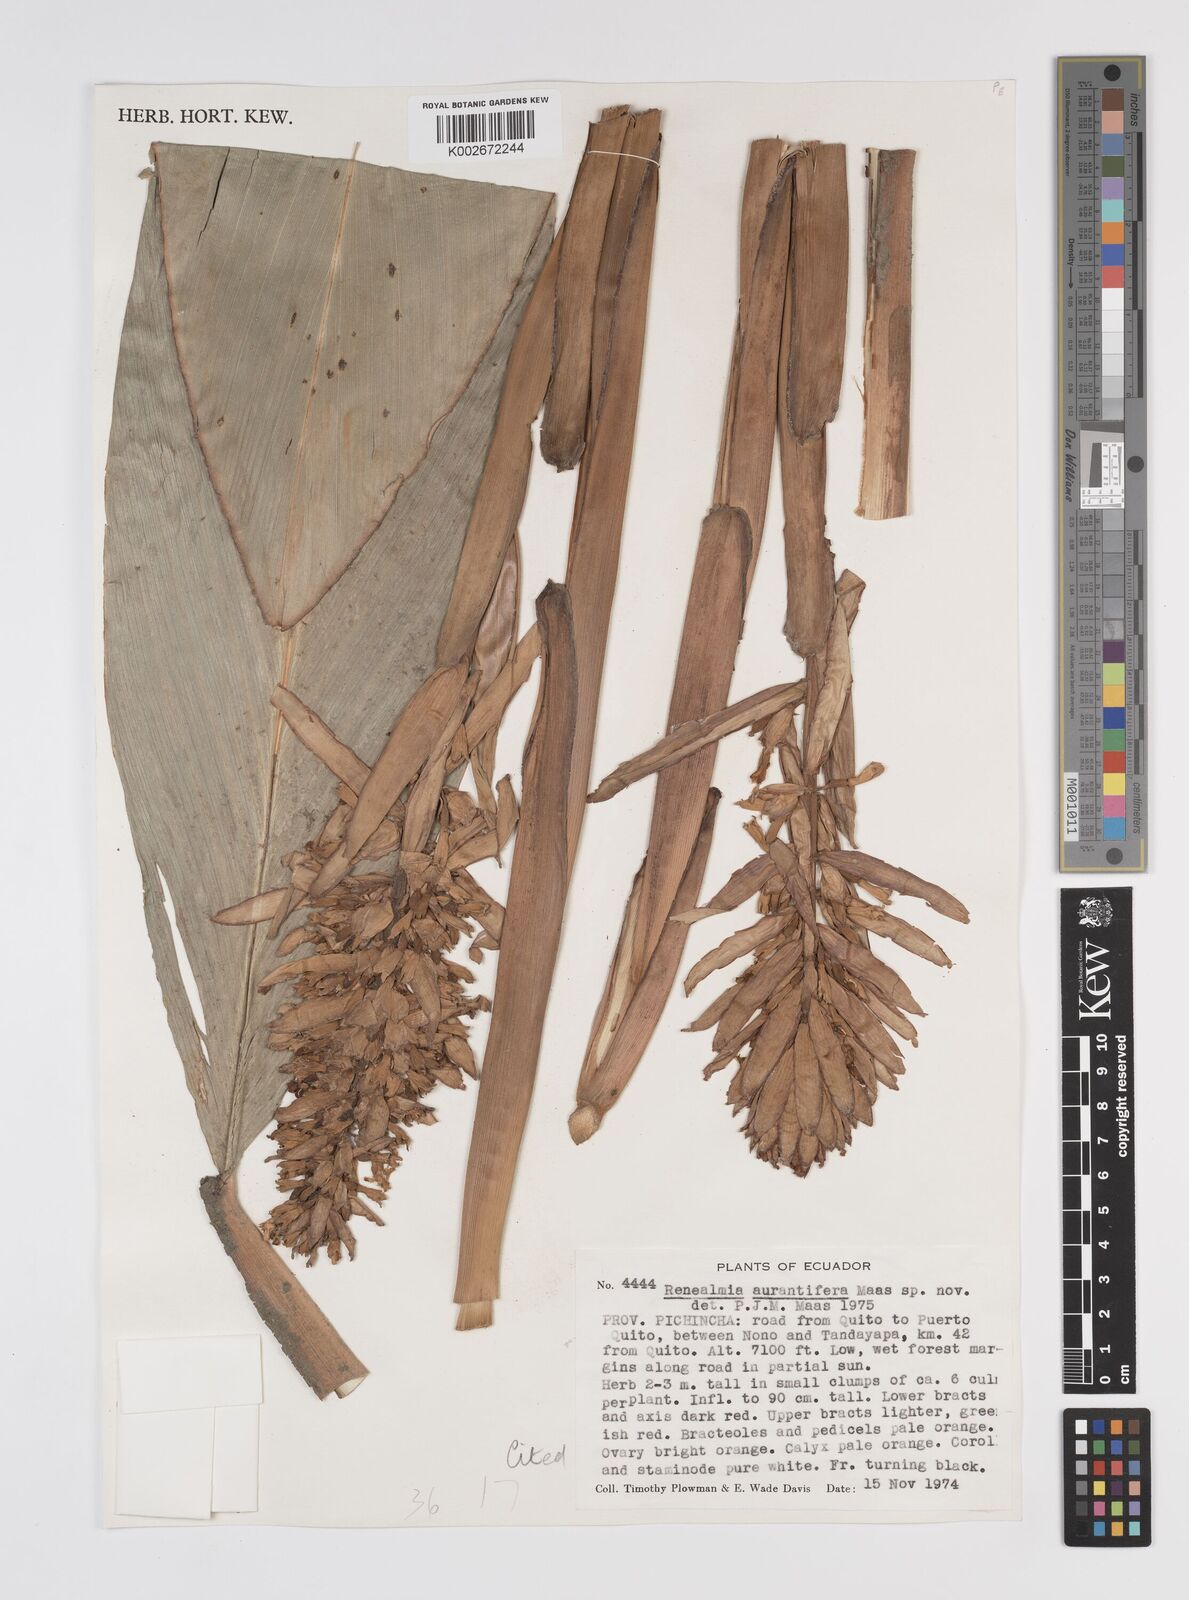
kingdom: Plantae
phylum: Tracheophyta
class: Liliopsida
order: Zingiberales
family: Zingiberaceae
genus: Renealmia
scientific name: Renealmia aurantiifera
